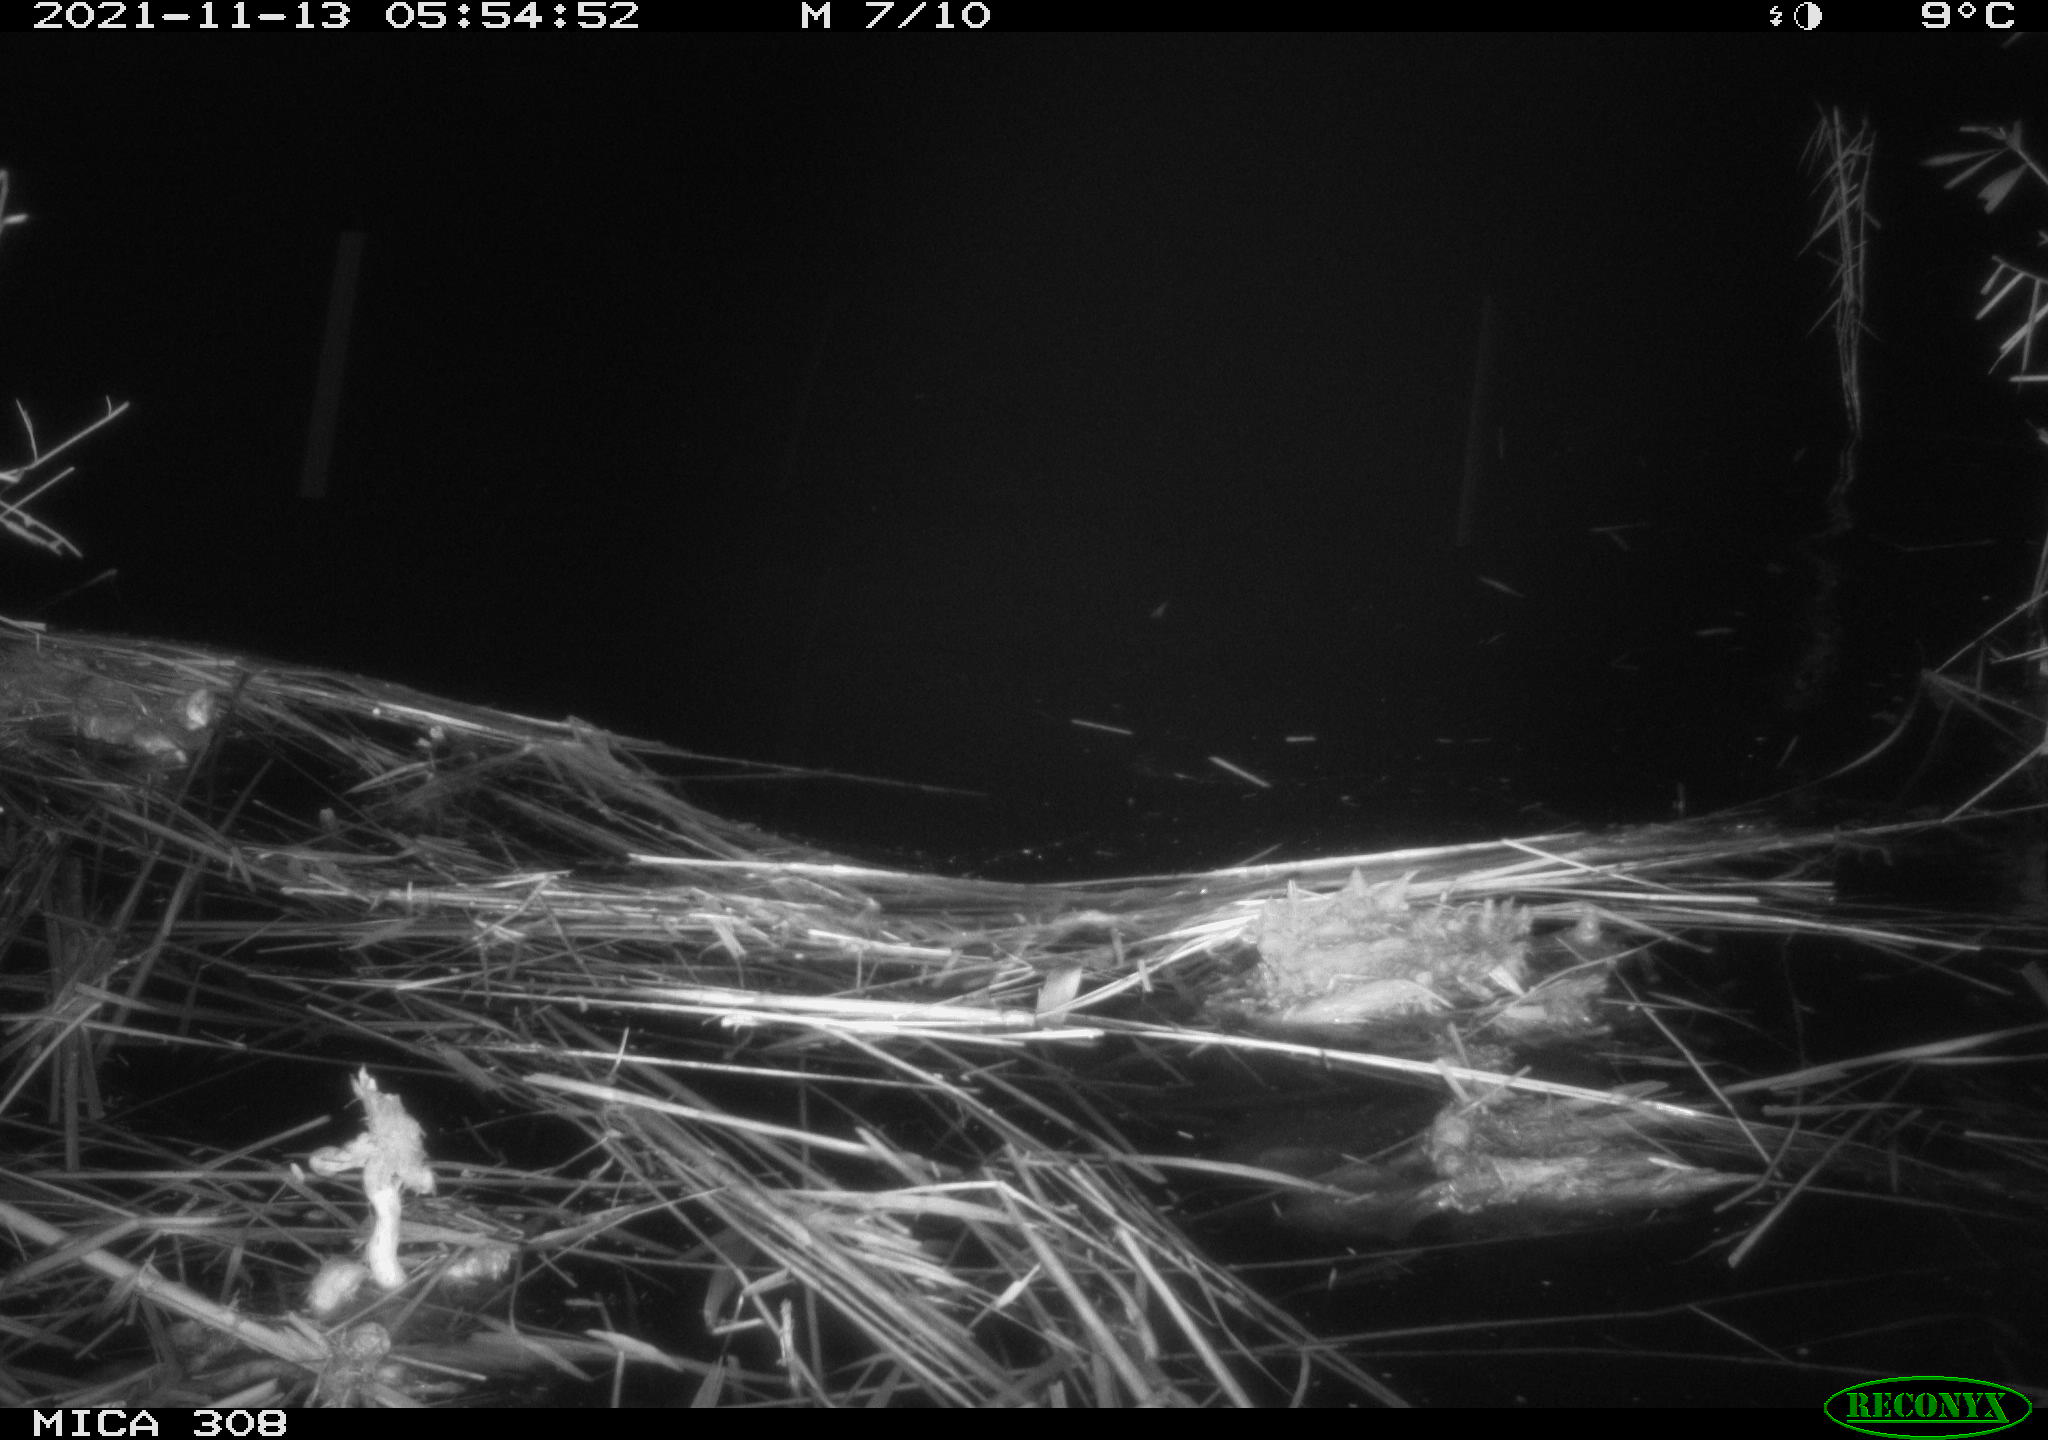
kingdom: Animalia
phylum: Chordata
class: Aves
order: Anseriformes
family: Anatidae
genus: Anas
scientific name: Anas platyrhynchos
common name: Mallard
